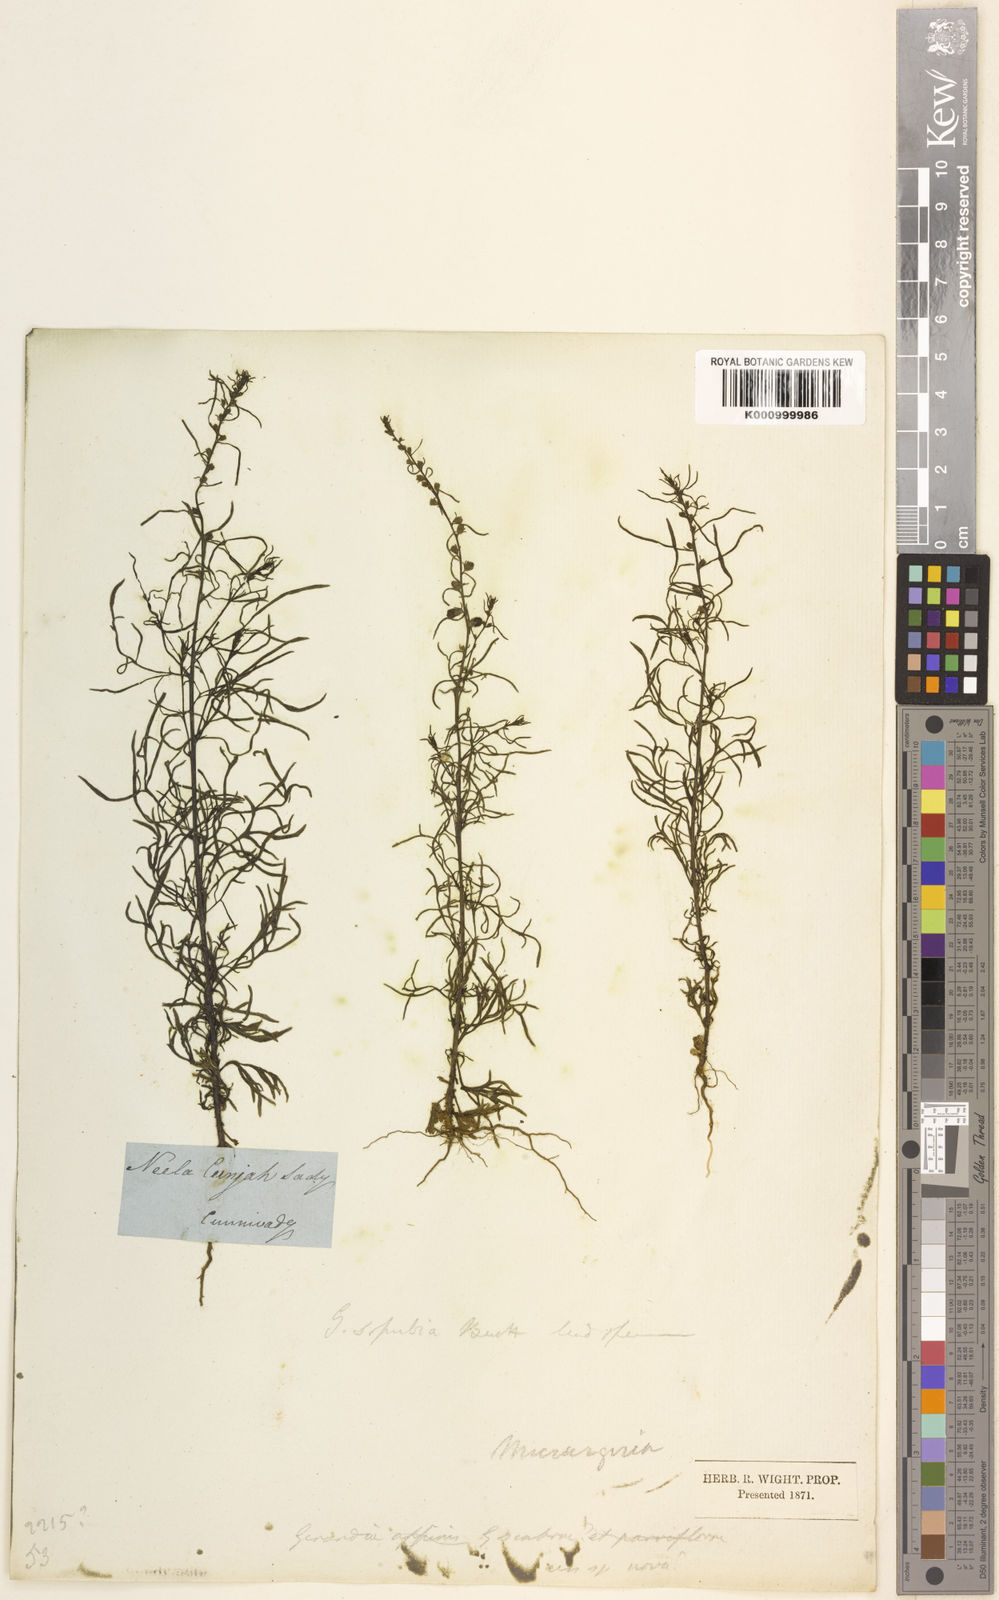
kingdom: Plantae
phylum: Tracheophyta
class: Magnoliopsida
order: Lamiales
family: Orobanchaceae
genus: Micrargeria
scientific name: Micrargeria wightii
